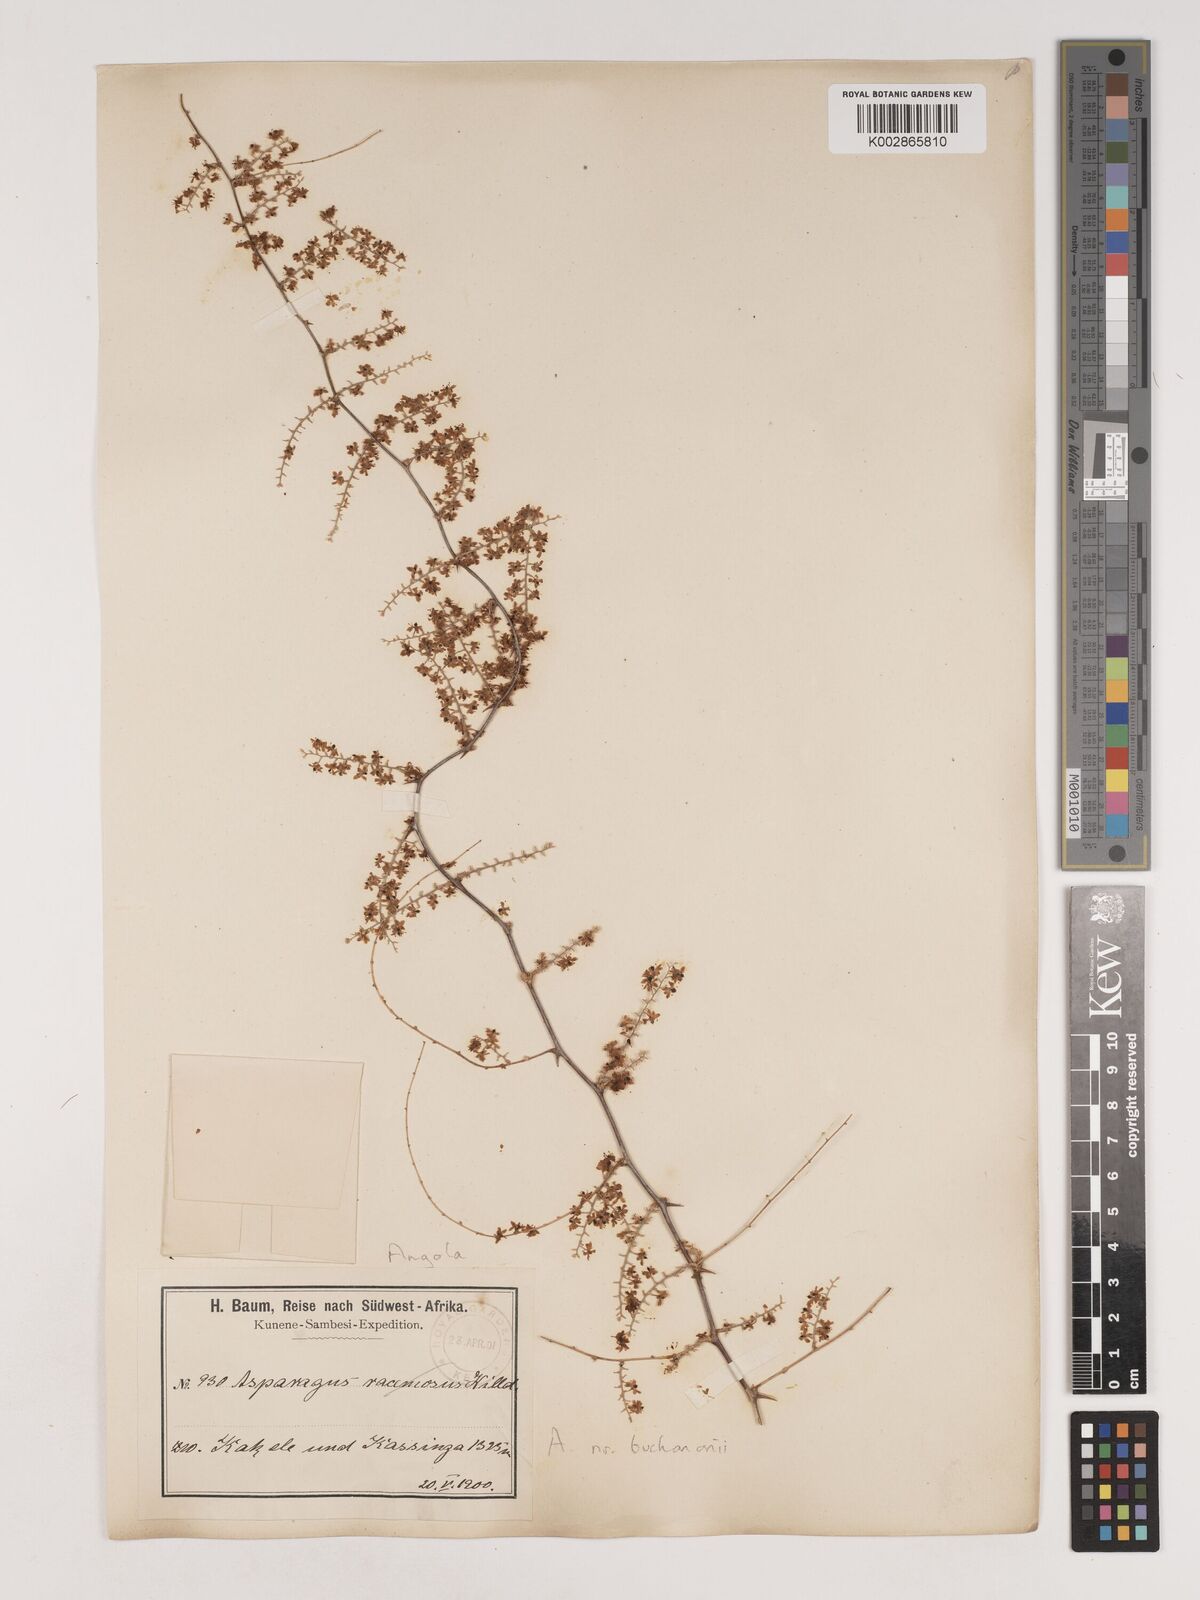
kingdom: Plantae
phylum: Tracheophyta
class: Liliopsida
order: Asparagales
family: Asparagaceae
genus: Asparagus
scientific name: Asparagus buchananii
